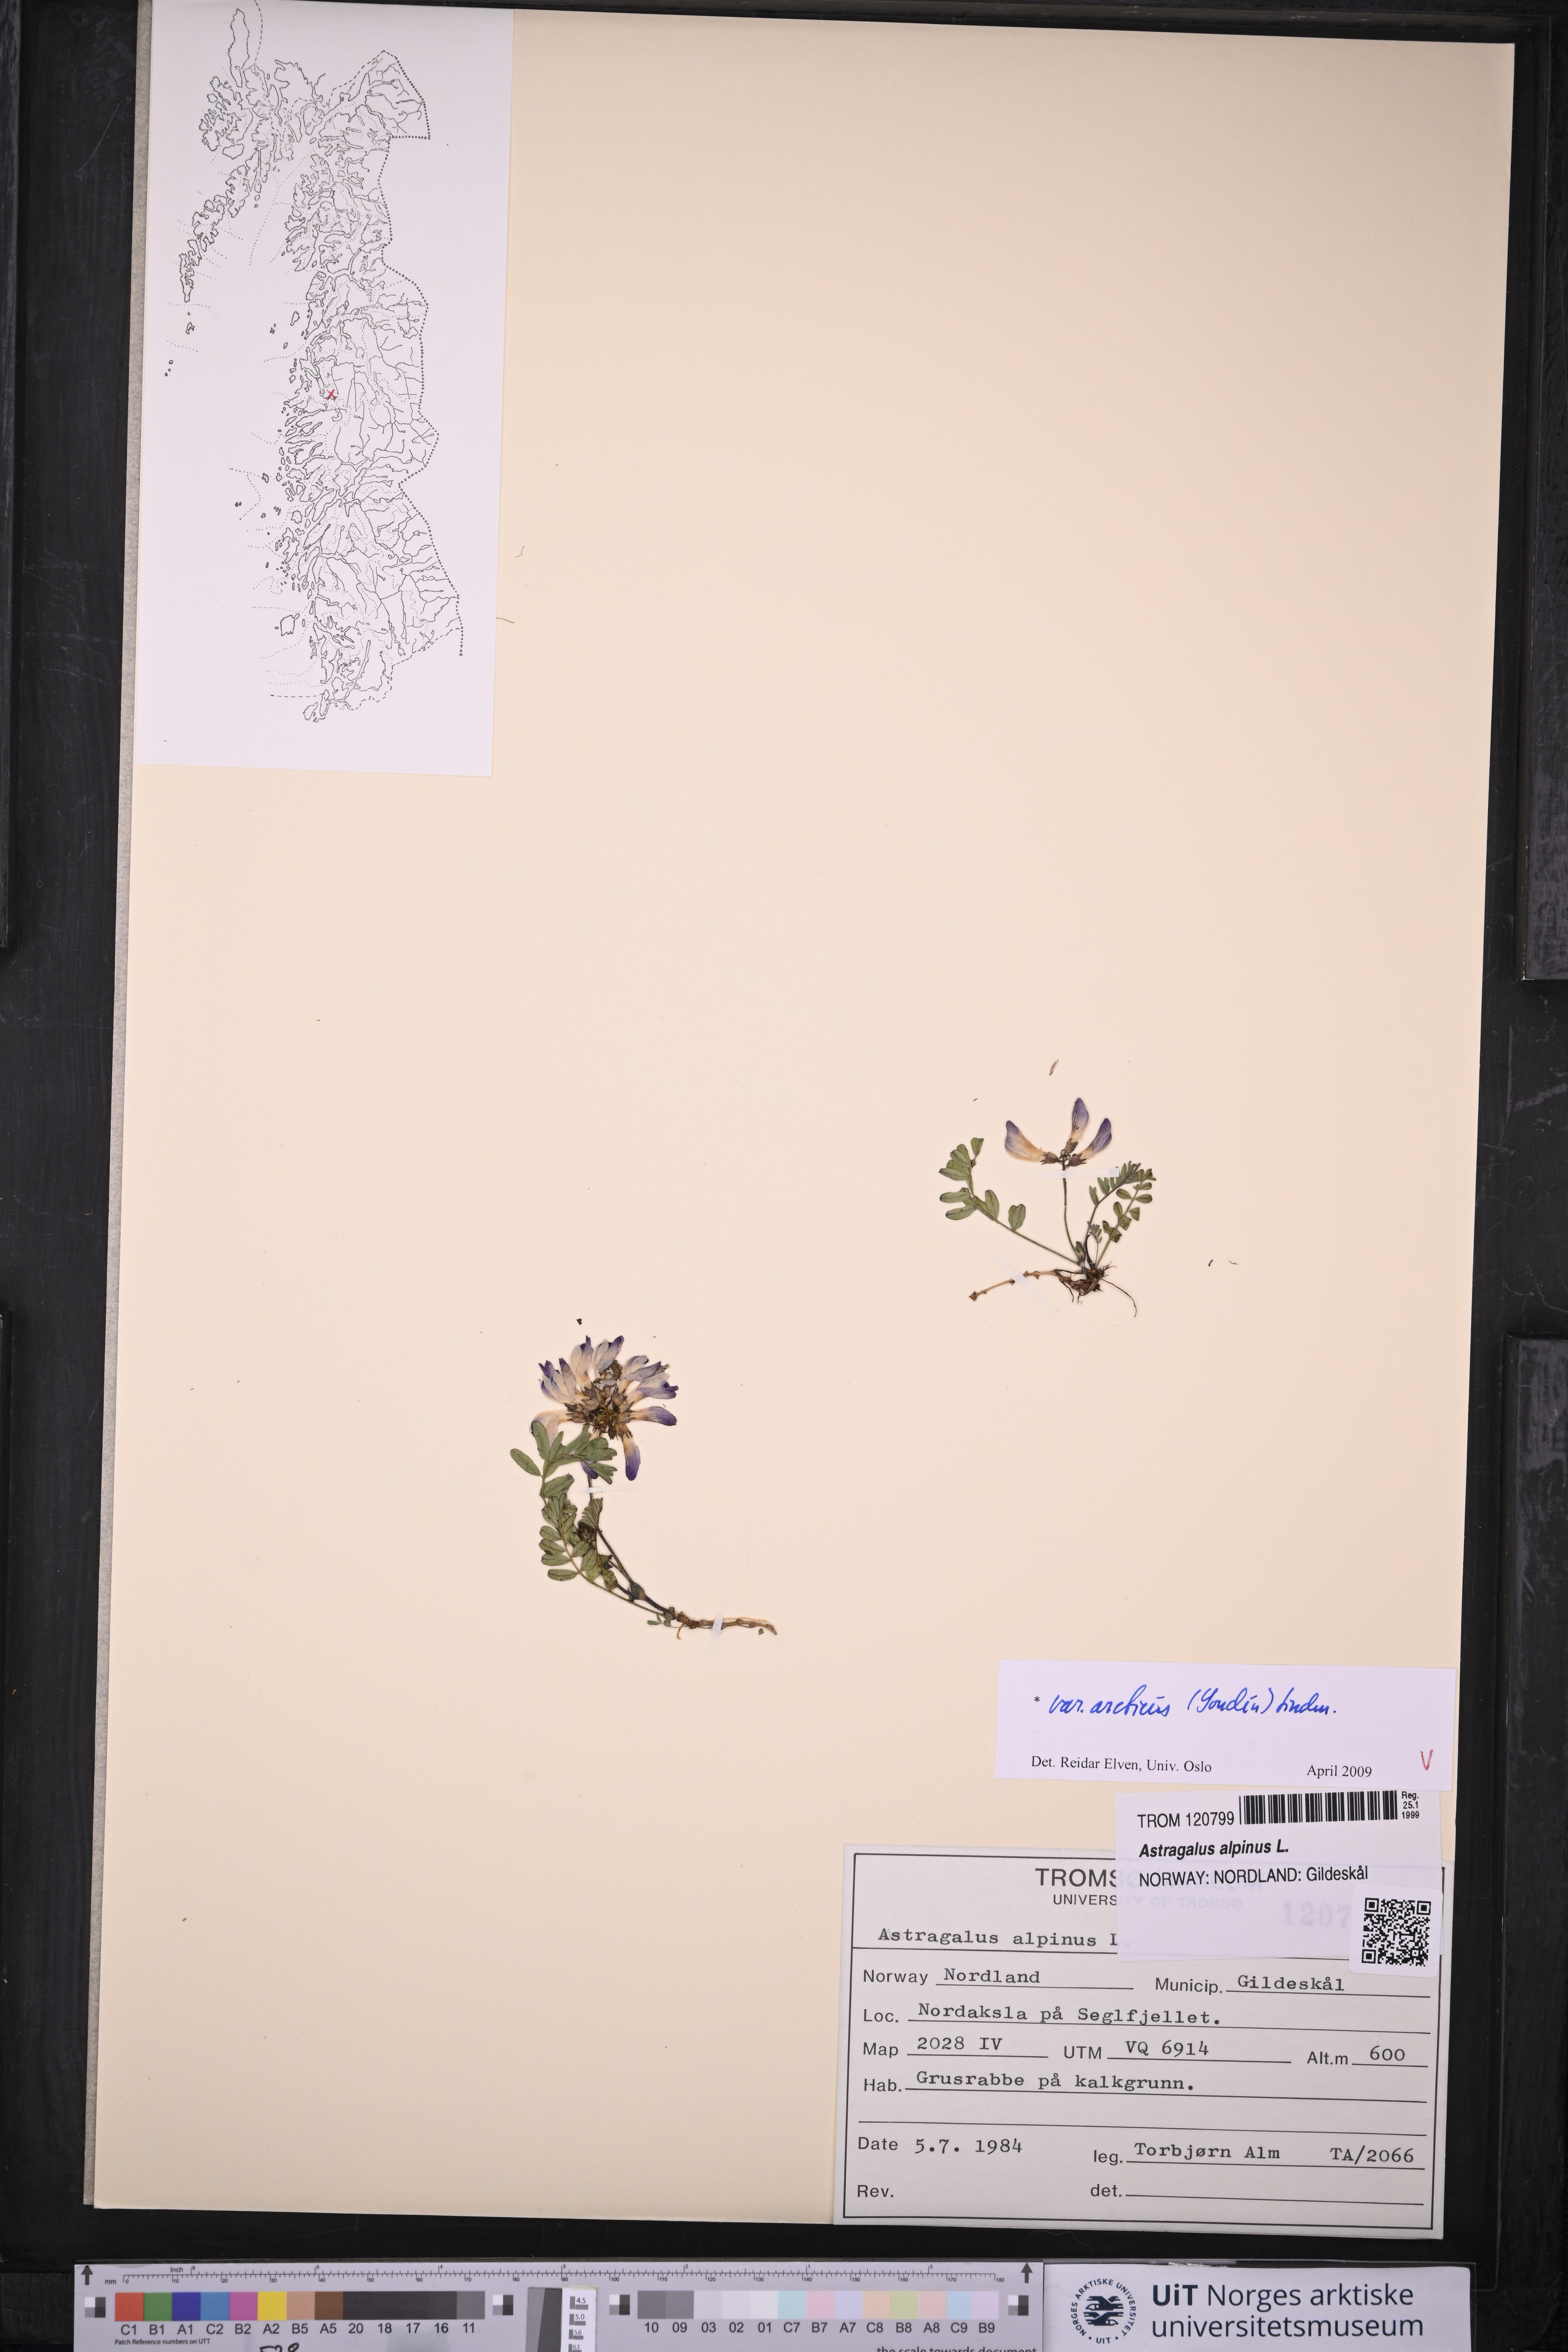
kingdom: Plantae
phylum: Tracheophyta
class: Magnoliopsida
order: Fabales
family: Fabaceae
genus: Astragalus
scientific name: Astragalus norvegicus
